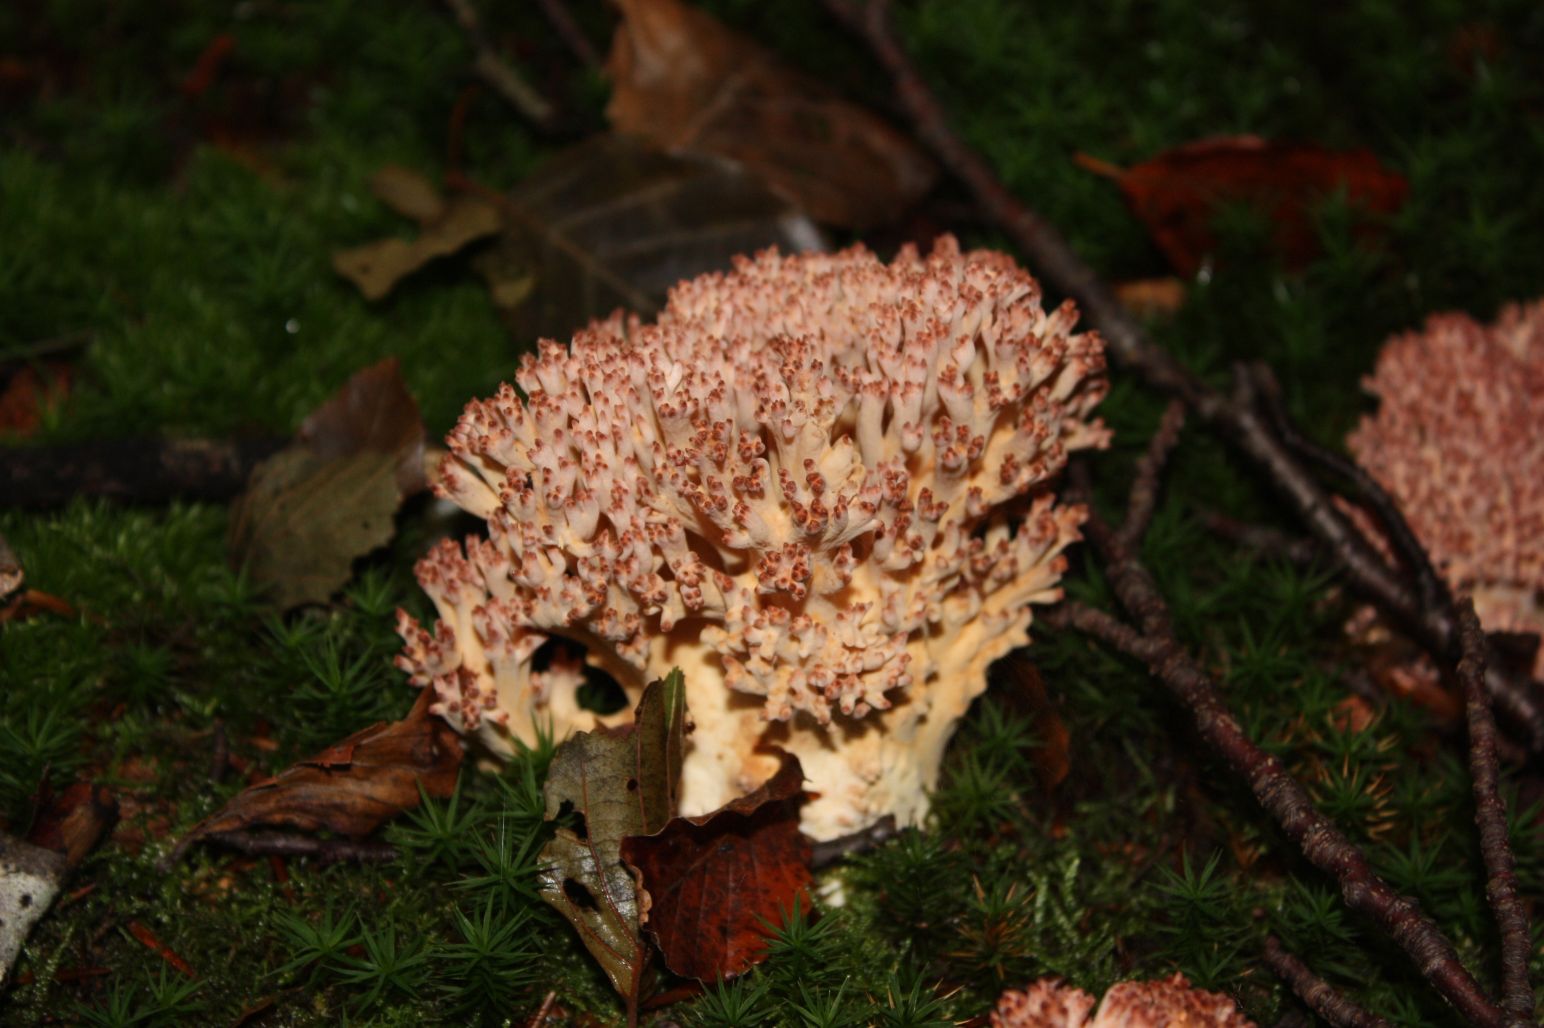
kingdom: Fungi
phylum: Basidiomycota
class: Agaricomycetes
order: Gomphales
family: Gomphaceae
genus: Ramaria
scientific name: Ramaria botrytis
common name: drue-koralsvamp
